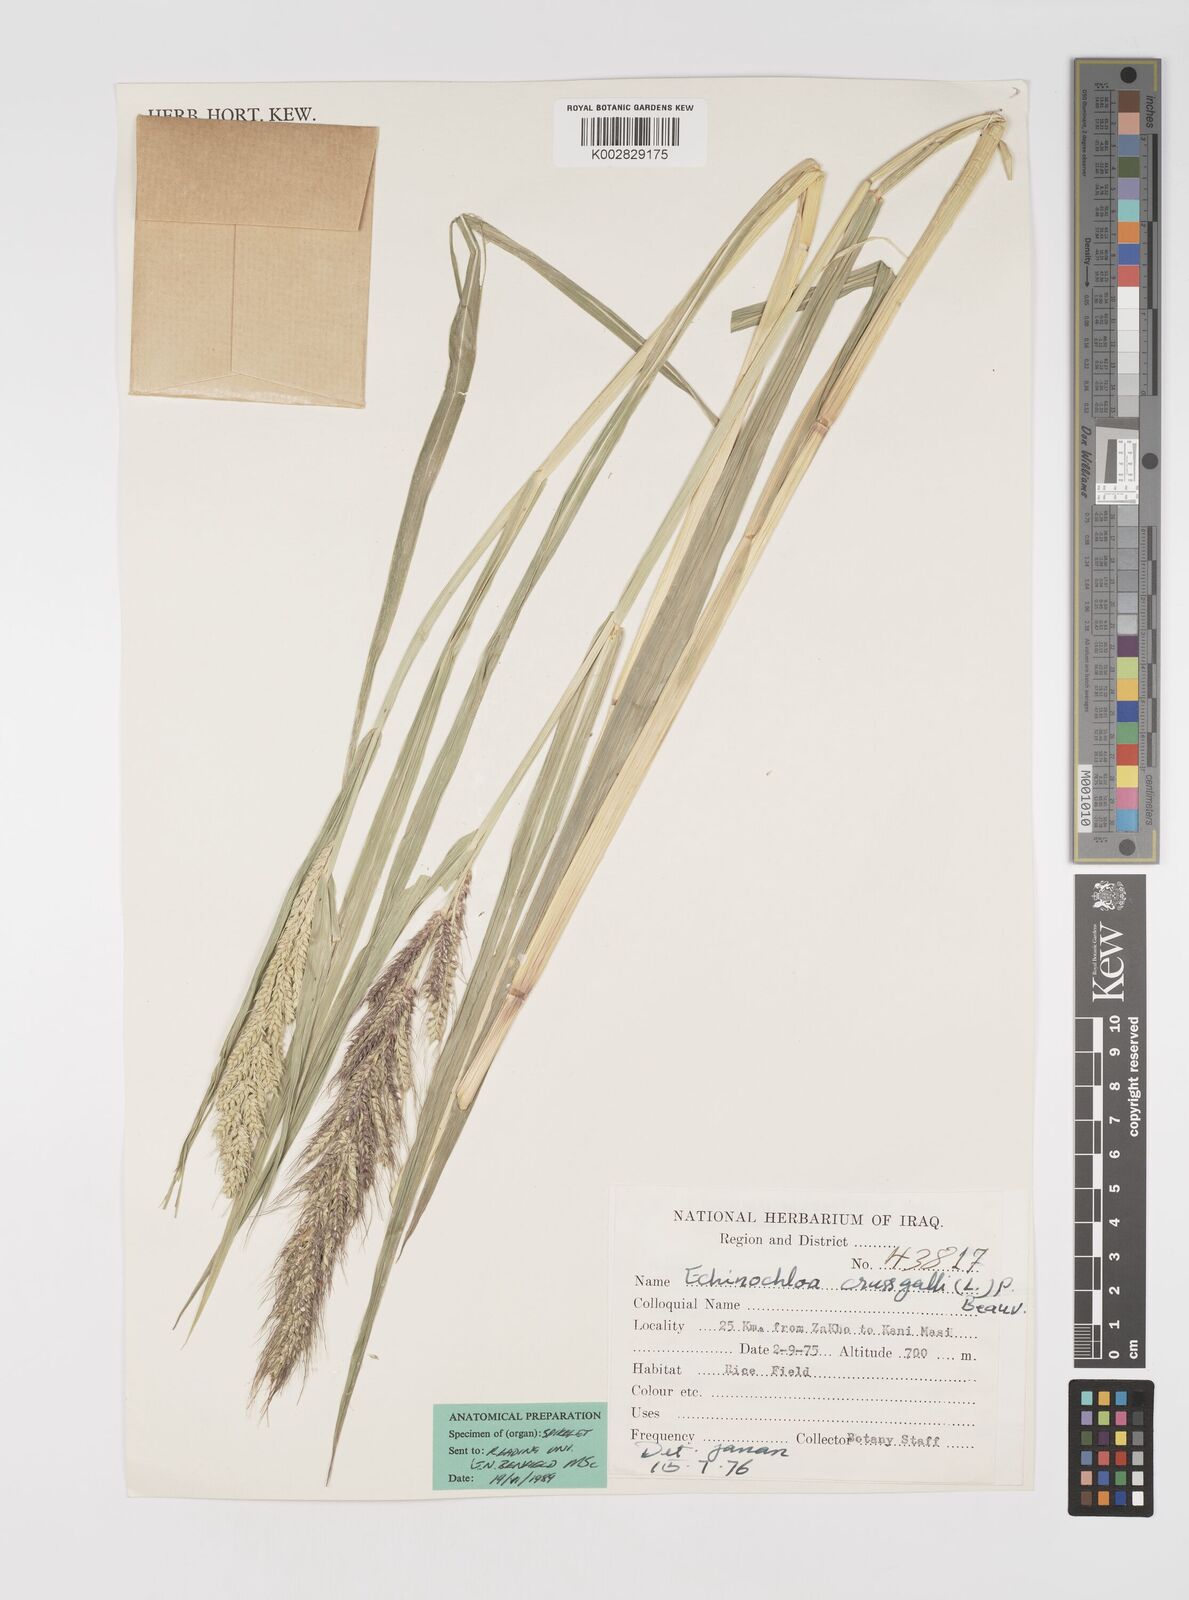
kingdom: Plantae
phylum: Tracheophyta
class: Liliopsida
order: Poales
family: Poaceae
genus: Echinochloa
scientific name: Echinochloa crus-galli
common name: Cockspur
